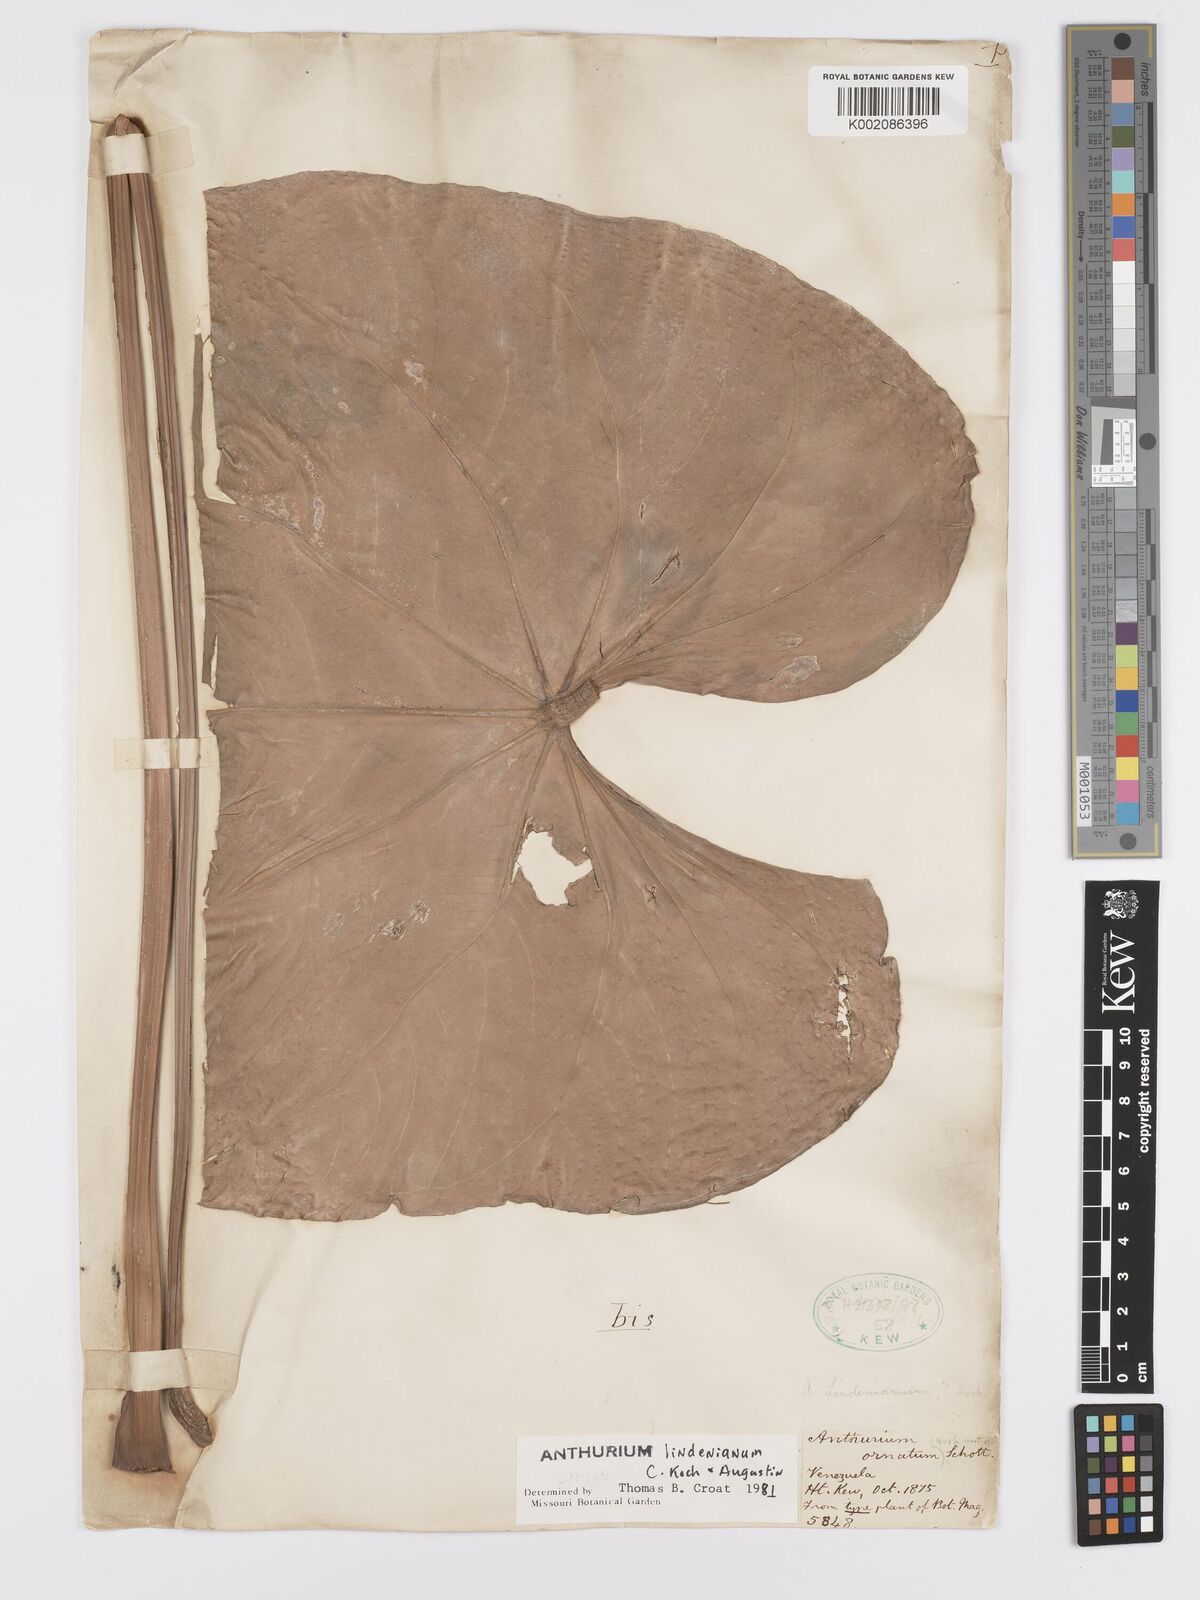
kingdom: Plantae
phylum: Tracheophyta
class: Liliopsida
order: Alismatales
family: Araceae
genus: Anthurium
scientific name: Anthurium lindenianum
